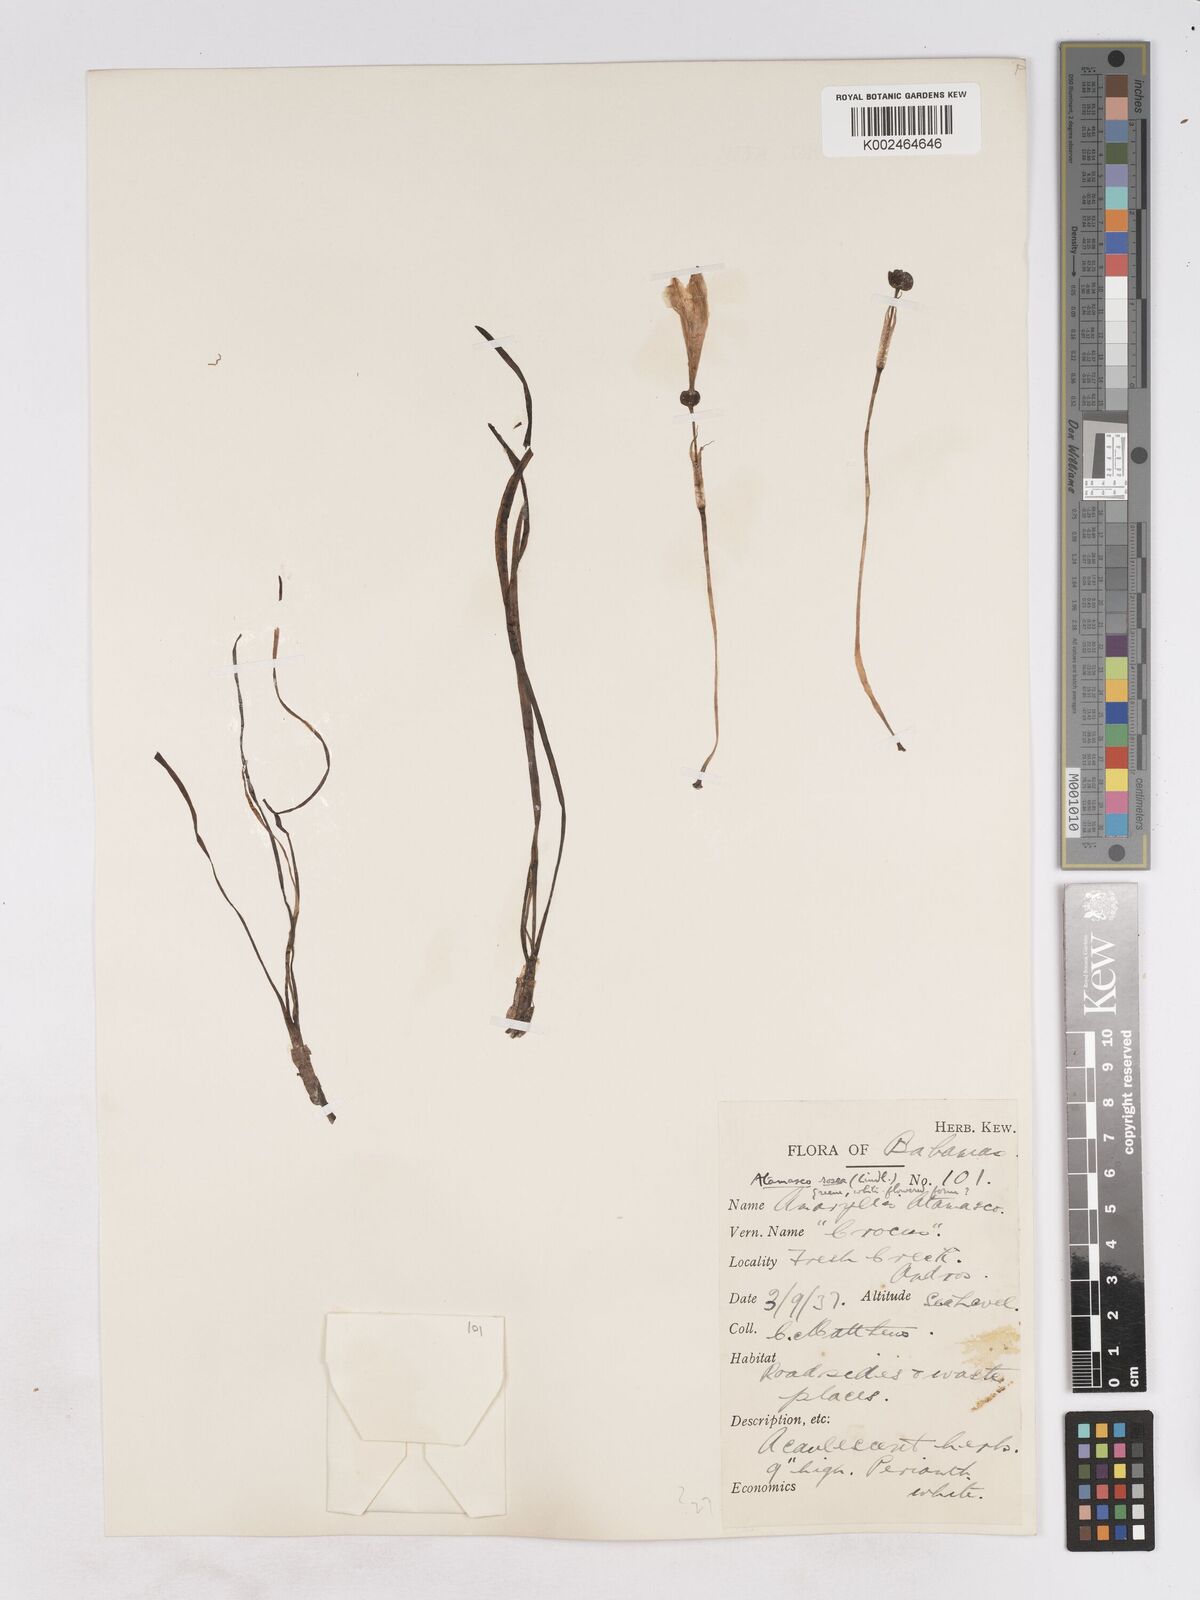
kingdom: Plantae
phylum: Tracheophyta
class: Liliopsida
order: Asparagales
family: Amaryllidaceae
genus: Zephyranthes
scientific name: Zephyranthes rosea
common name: Cuban zephyrlily
